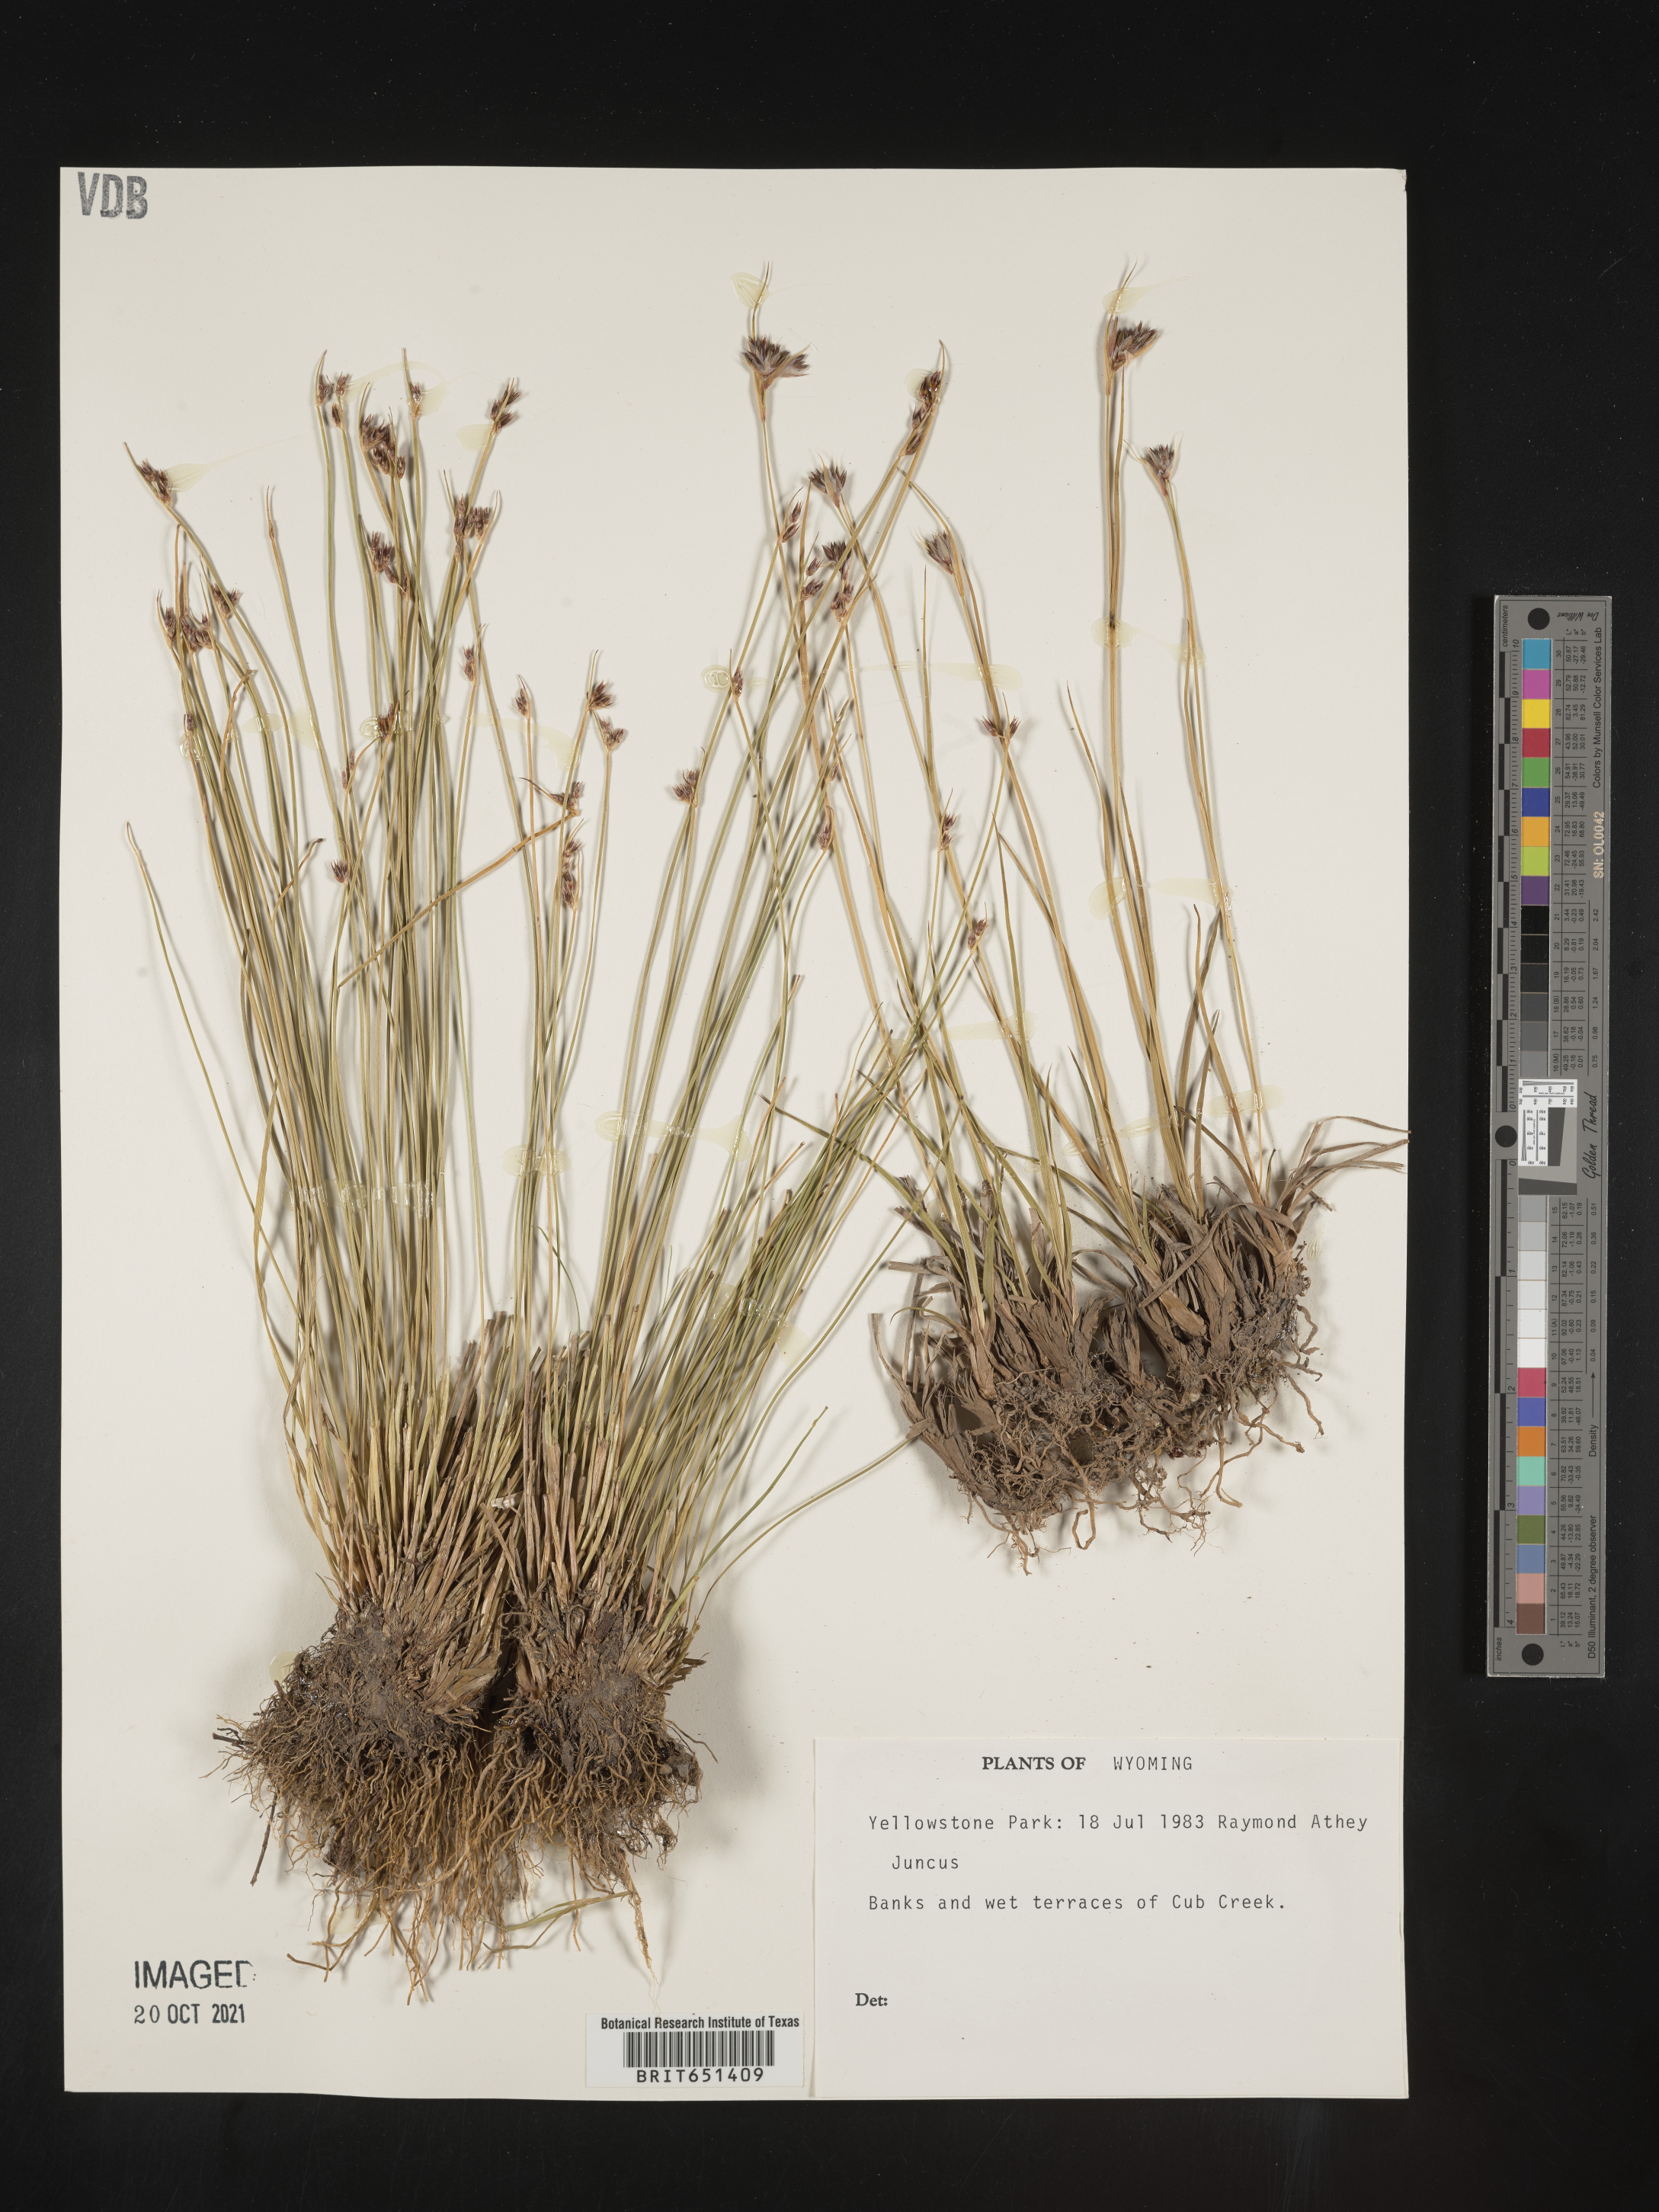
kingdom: Plantae
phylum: Tracheophyta
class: Liliopsida
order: Poales
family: Juncaceae
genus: Juncus
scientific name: Juncus
